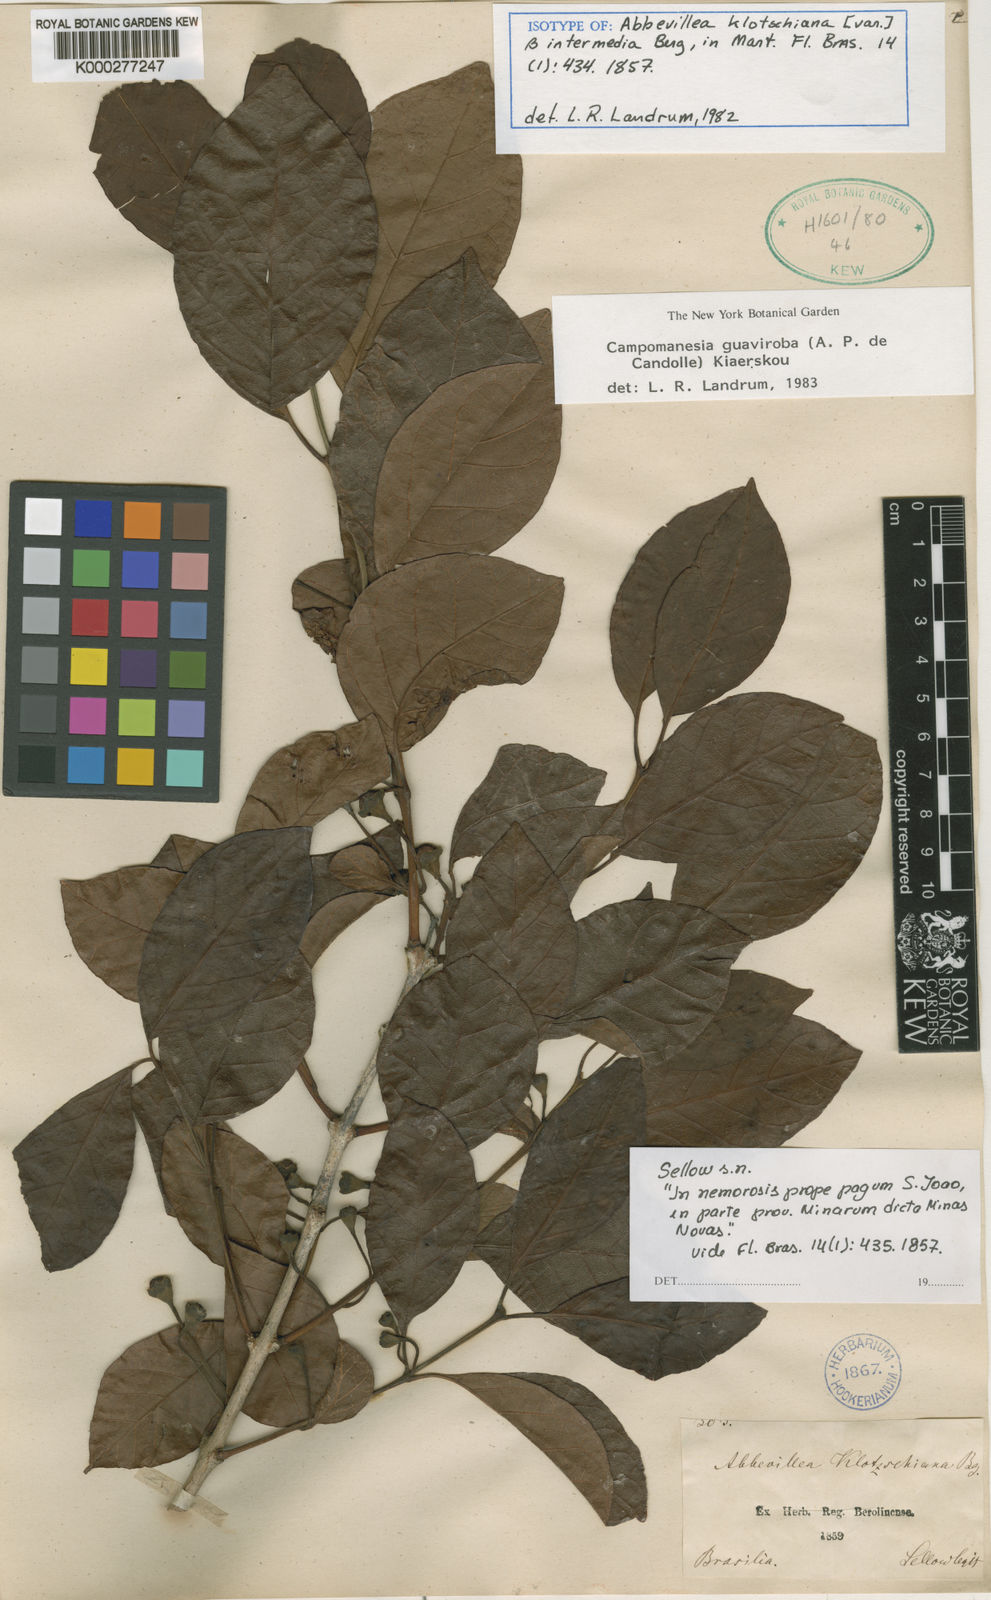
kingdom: Plantae
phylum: Tracheophyta
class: Magnoliopsida
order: Myrtales
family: Myrtaceae
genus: Campomanesia
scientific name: Campomanesia
